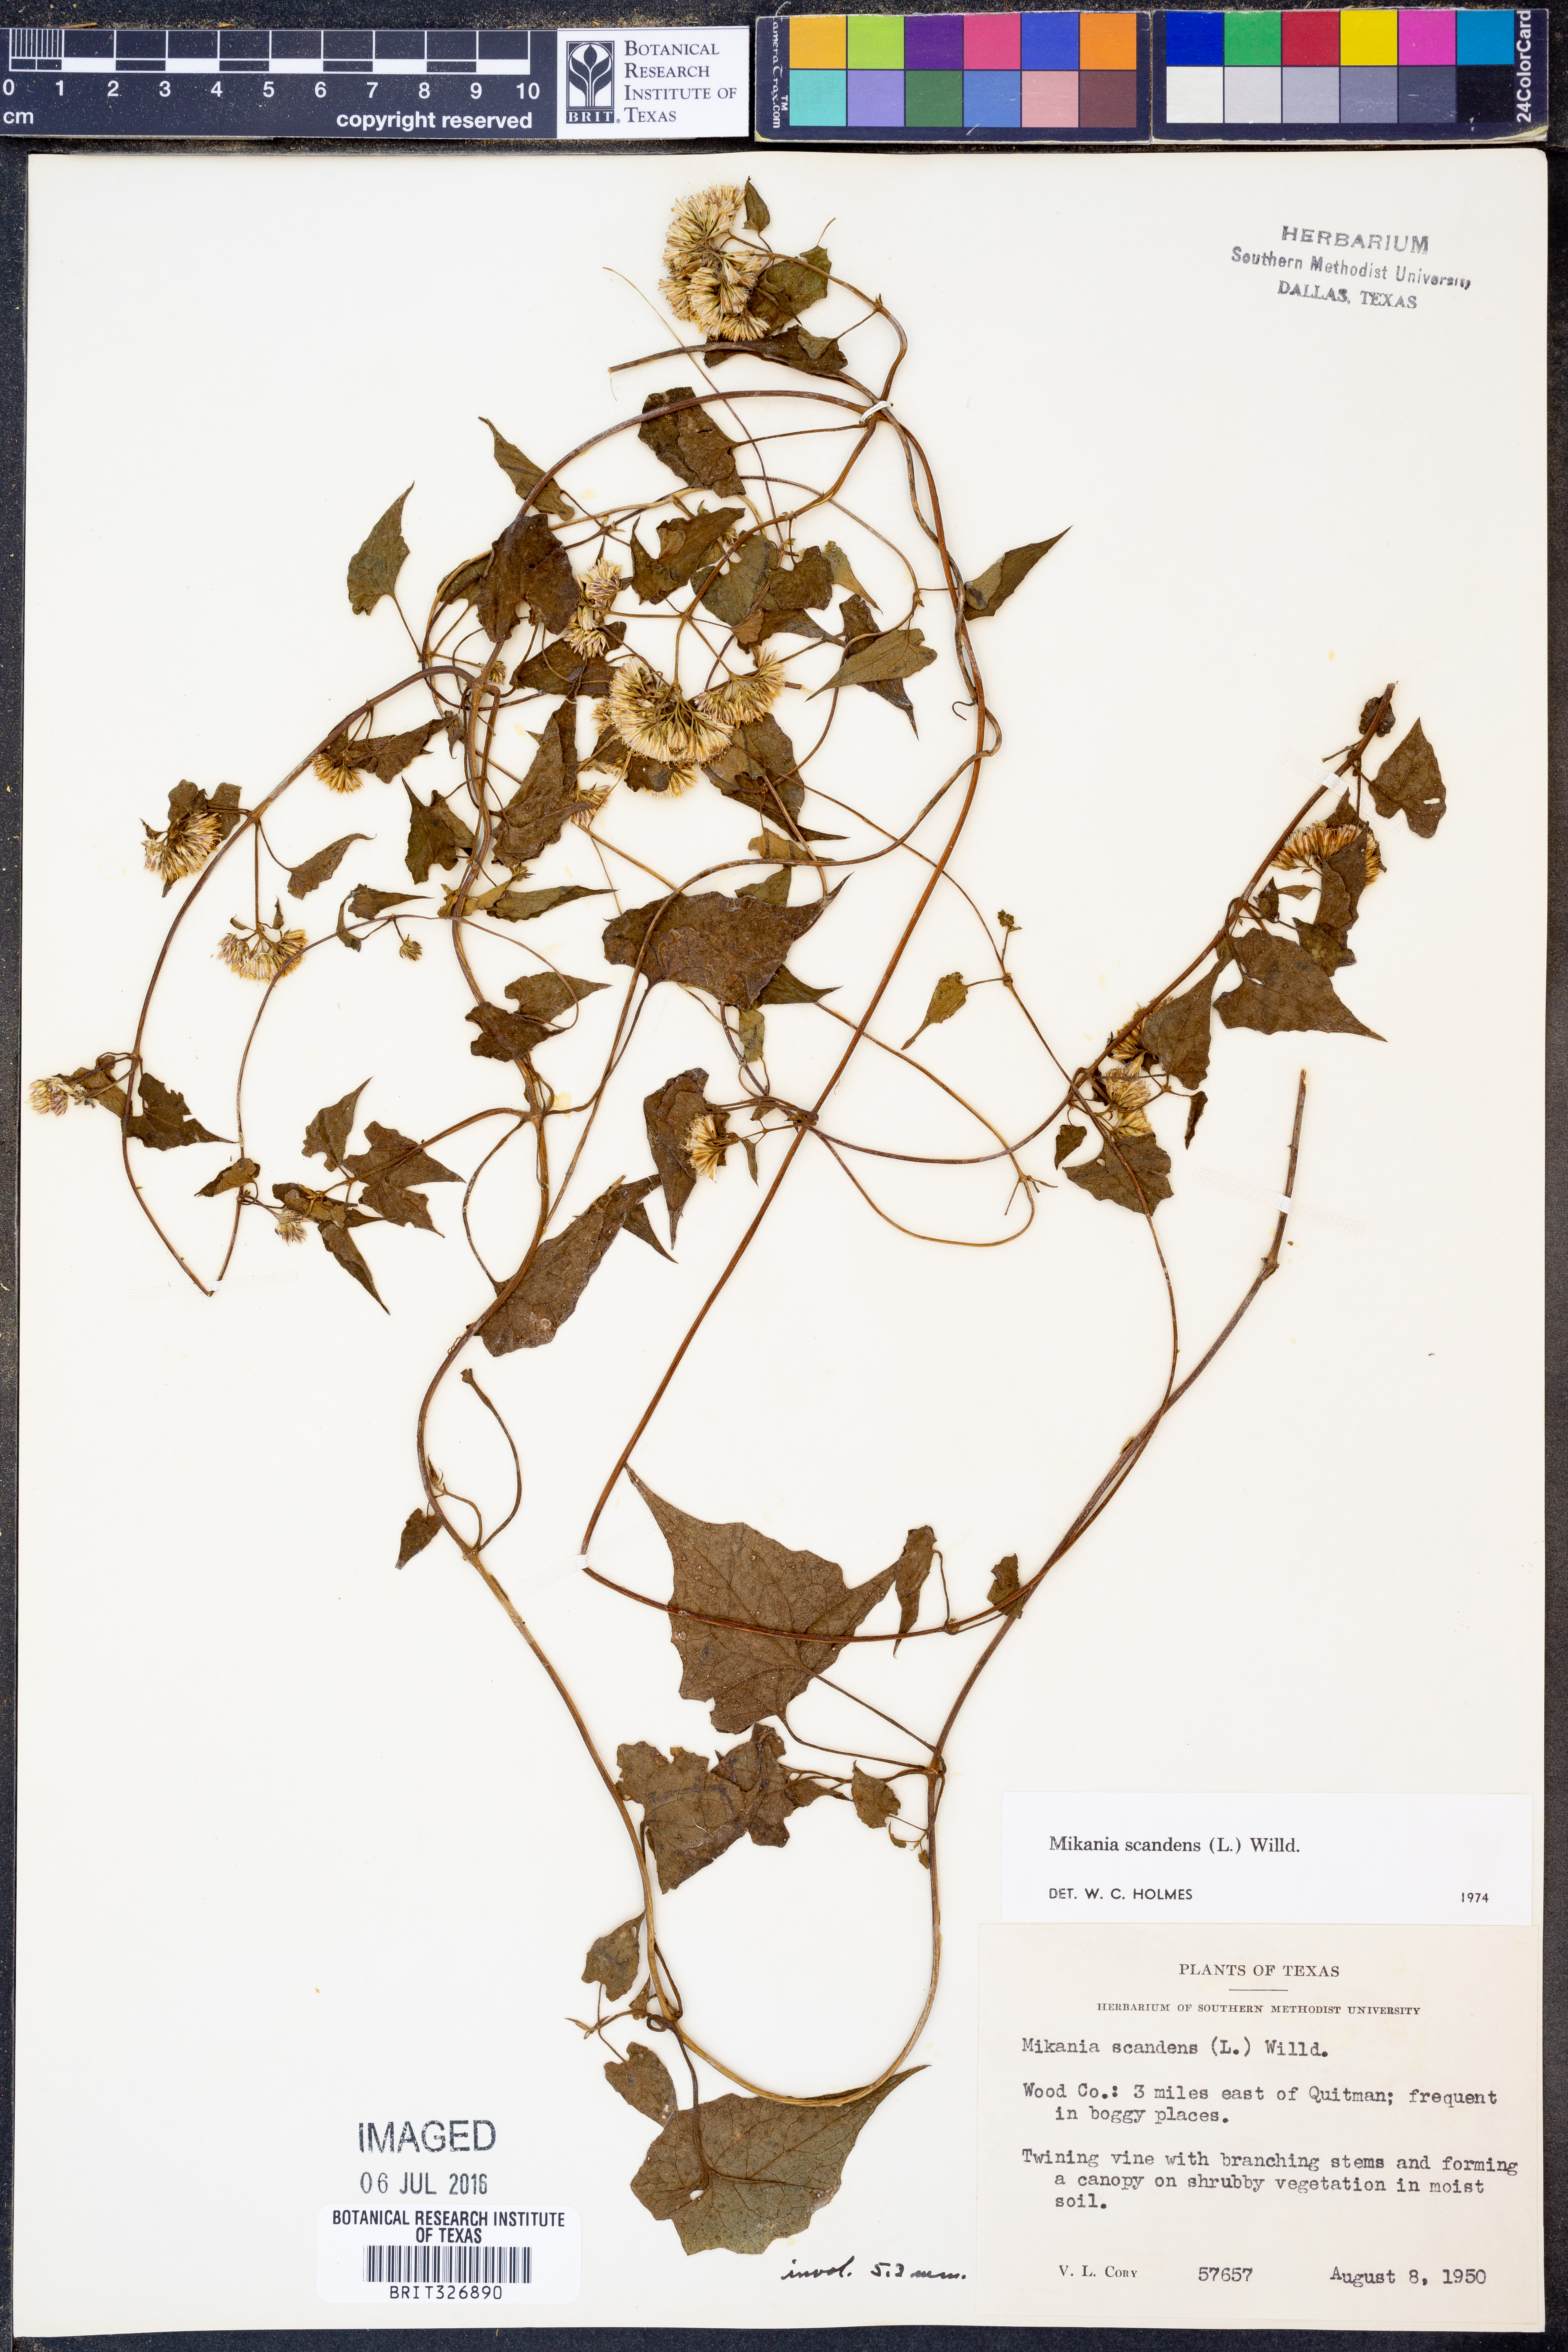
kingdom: Plantae
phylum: Tracheophyta
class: Magnoliopsida
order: Asterales
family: Asteraceae
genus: Mikania
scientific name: Mikania scandens
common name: Climbing hempvine
